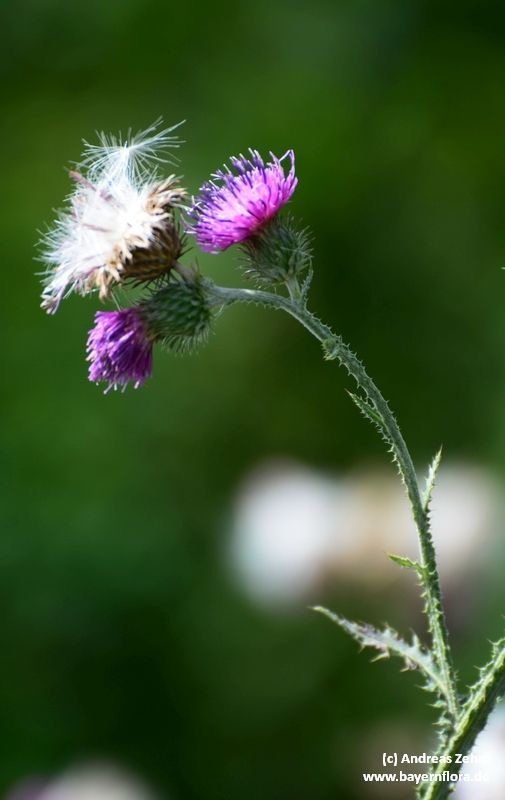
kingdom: Plantae
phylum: Tracheophyta
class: Magnoliopsida
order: Asterales
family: Asteraceae
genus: Carduus
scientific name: Carduus crispus
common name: Welted thistle
